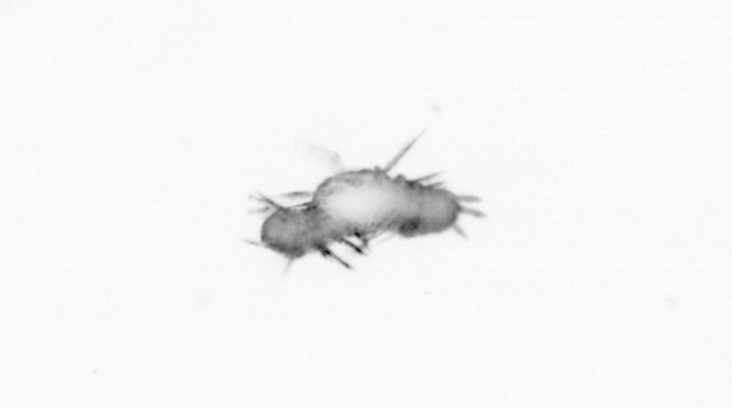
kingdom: Animalia
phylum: Annelida
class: Polychaeta
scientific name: Polychaeta
